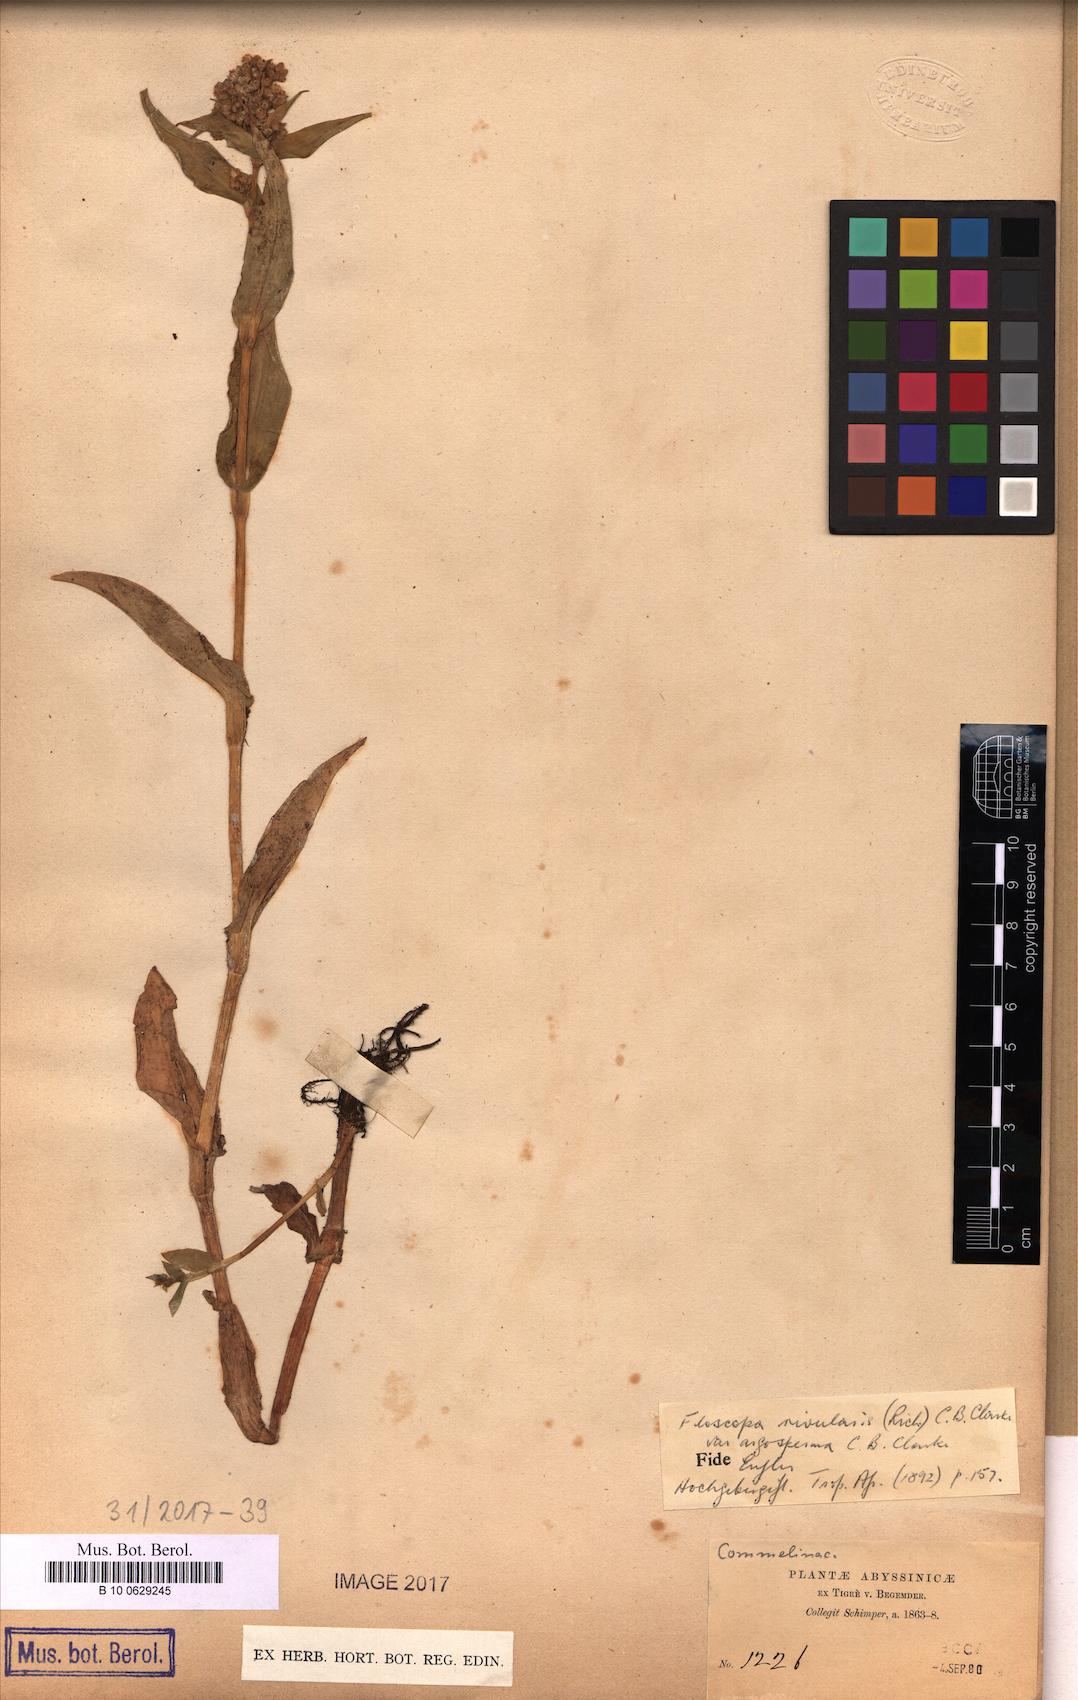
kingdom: Plantae
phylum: Tracheophyta
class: Liliopsida
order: Commelinales
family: Commelinaceae
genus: Floscopa
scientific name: Floscopa glomerata
